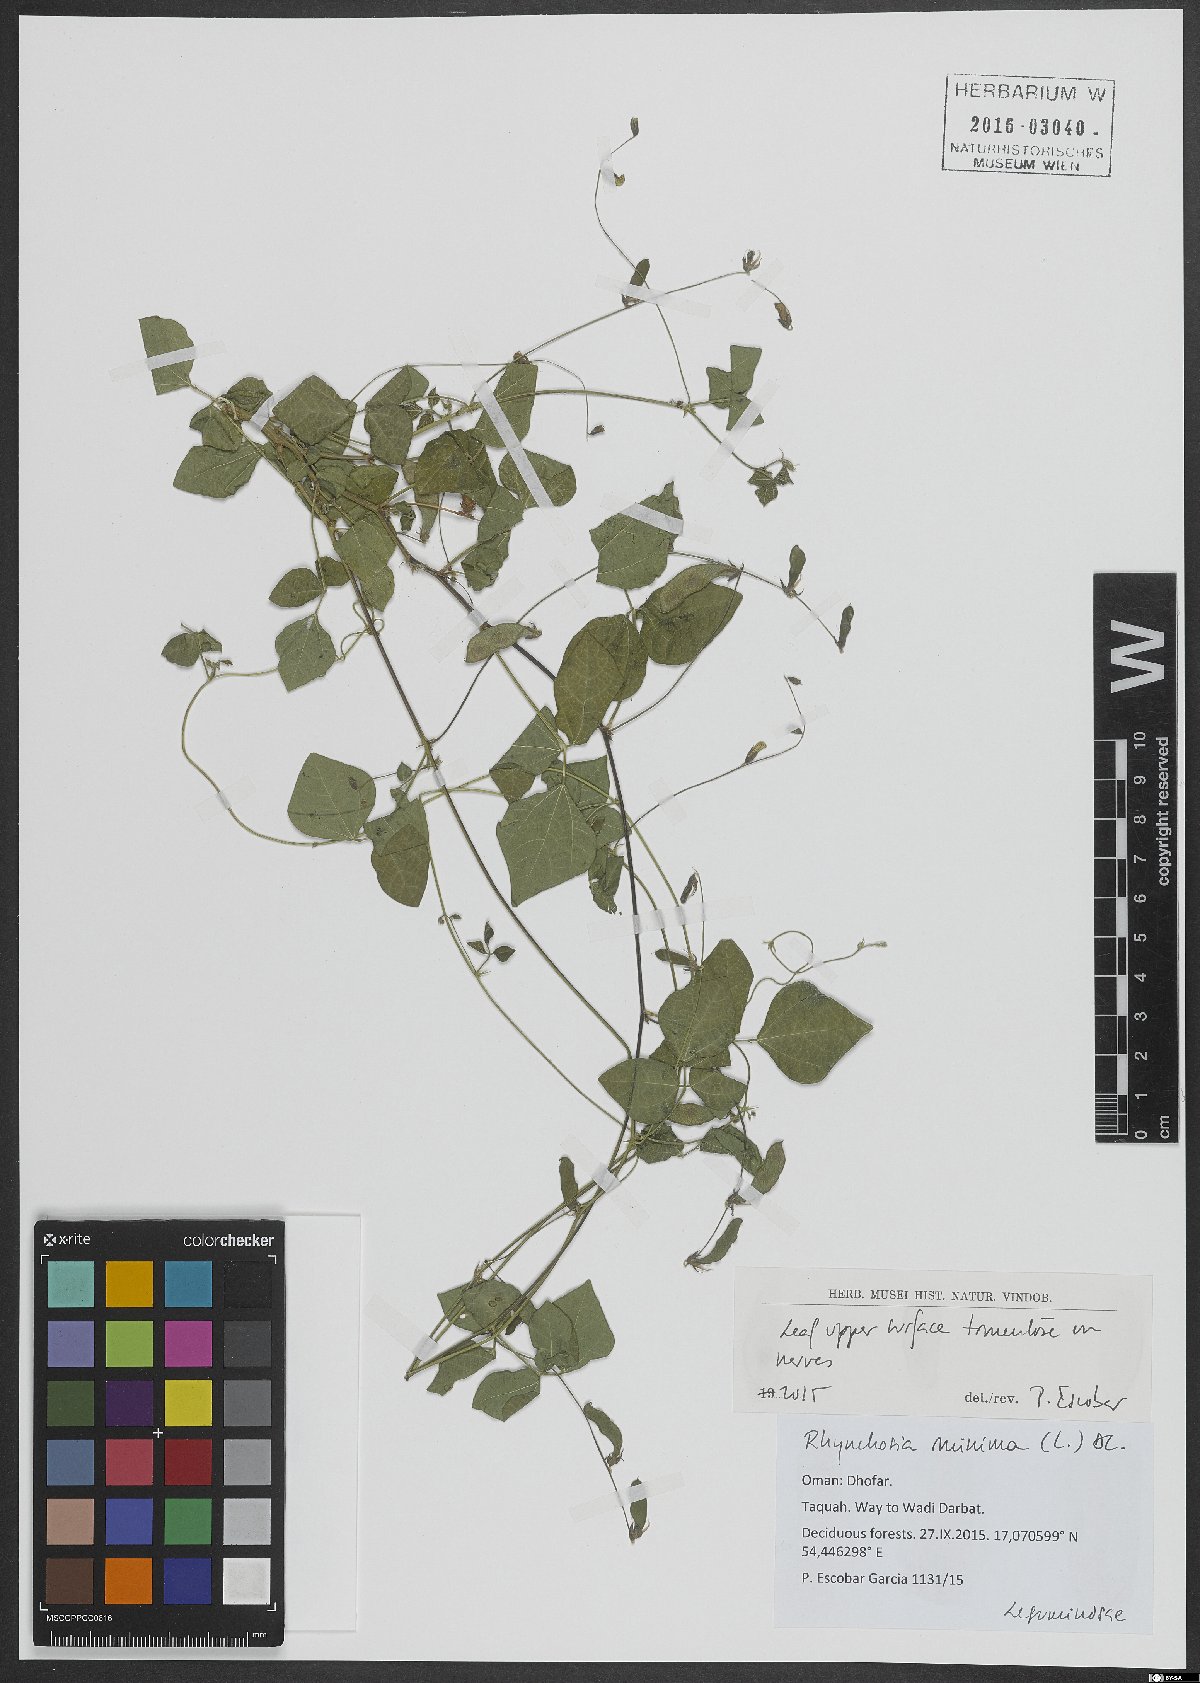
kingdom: Plantae
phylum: Tracheophyta
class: Magnoliopsida
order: Fabales
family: Fabaceae
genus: Rhynchosia
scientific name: Rhynchosia minima
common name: Least snoutbean
